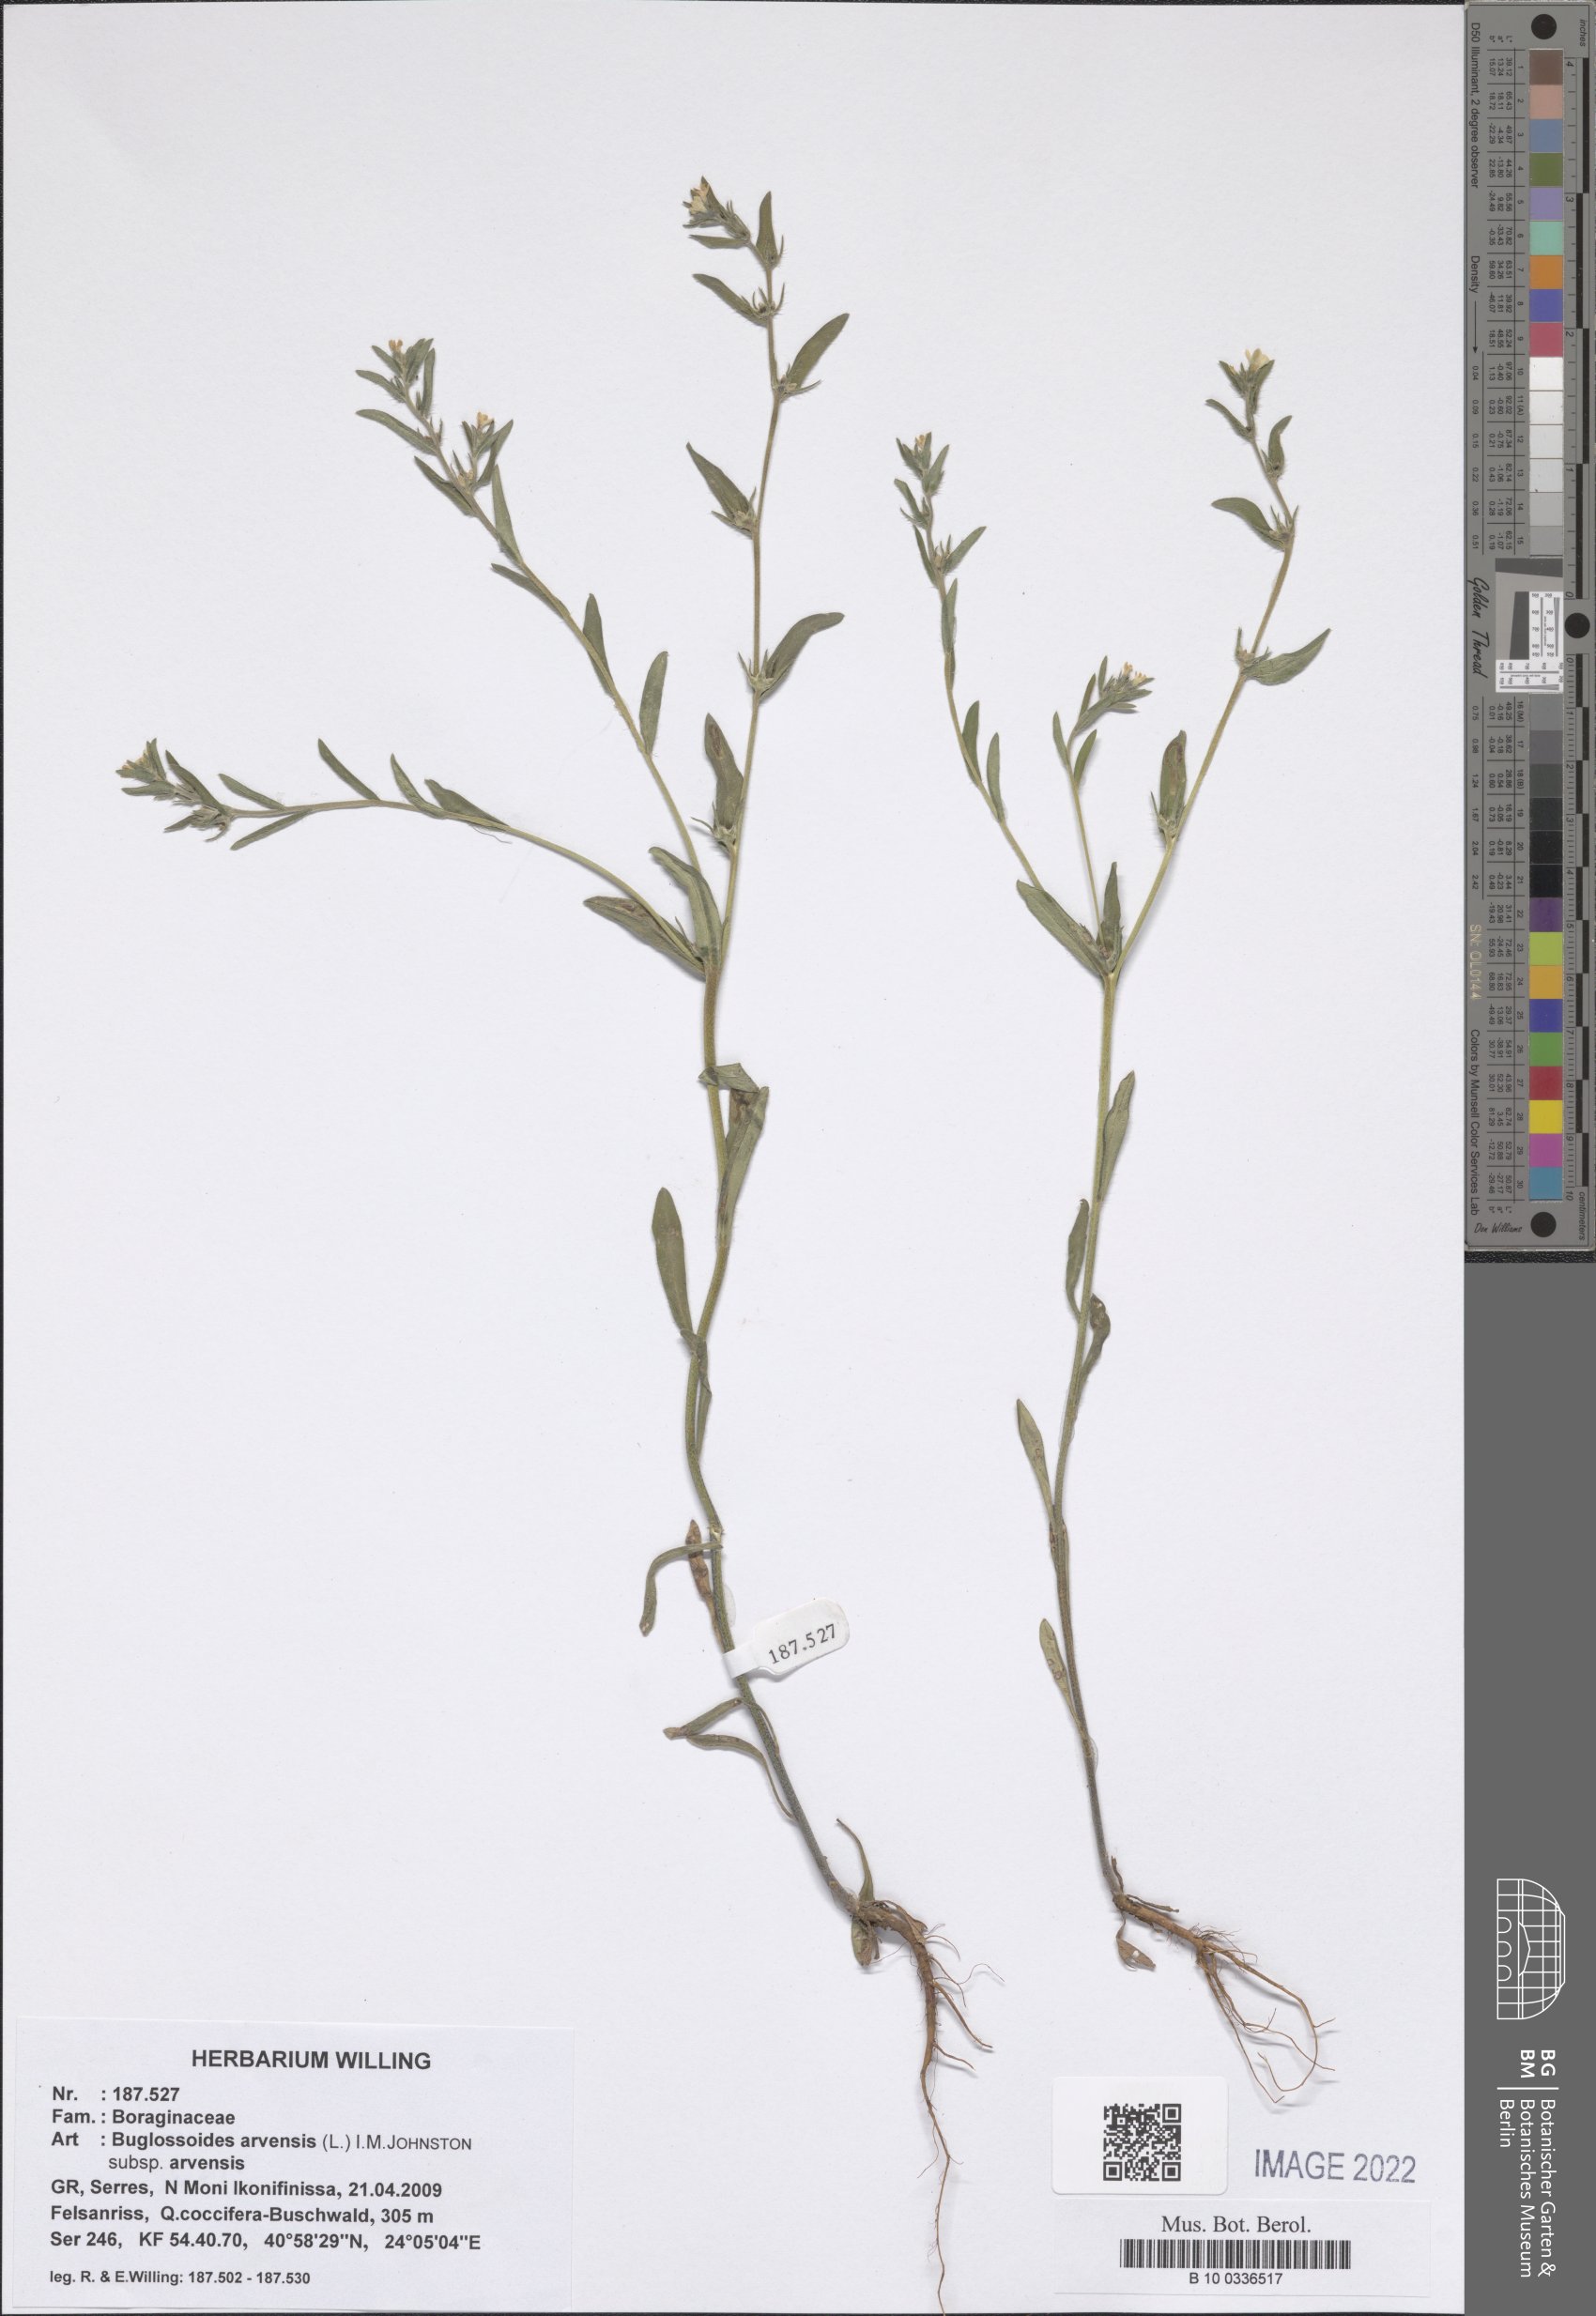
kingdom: Plantae
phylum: Tracheophyta
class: Magnoliopsida
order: Boraginales
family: Boraginaceae
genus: Buglossoides
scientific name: Buglossoides arvensis
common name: Corn gromwell
